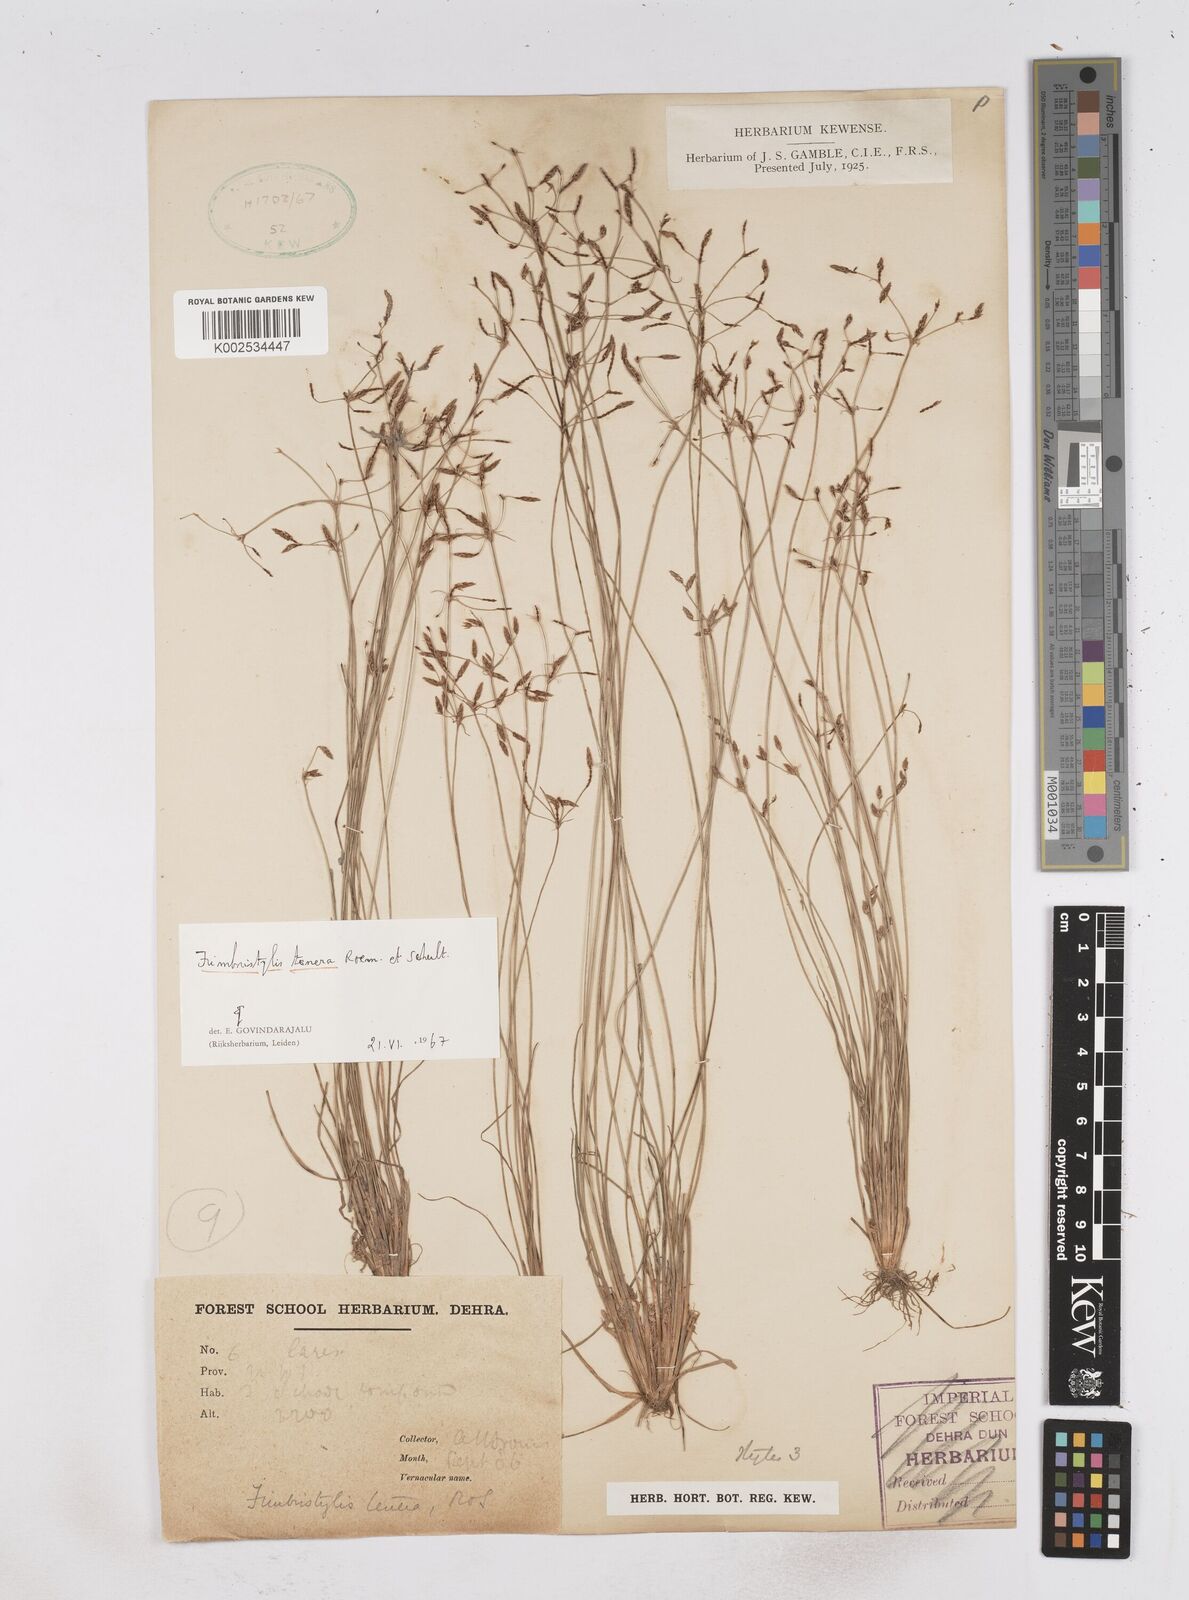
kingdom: Plantae
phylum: Tracheophyta
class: Liliopsida
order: Poales
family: Cyperaceae
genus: Fimbristylis
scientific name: Fimbristylis tenera
